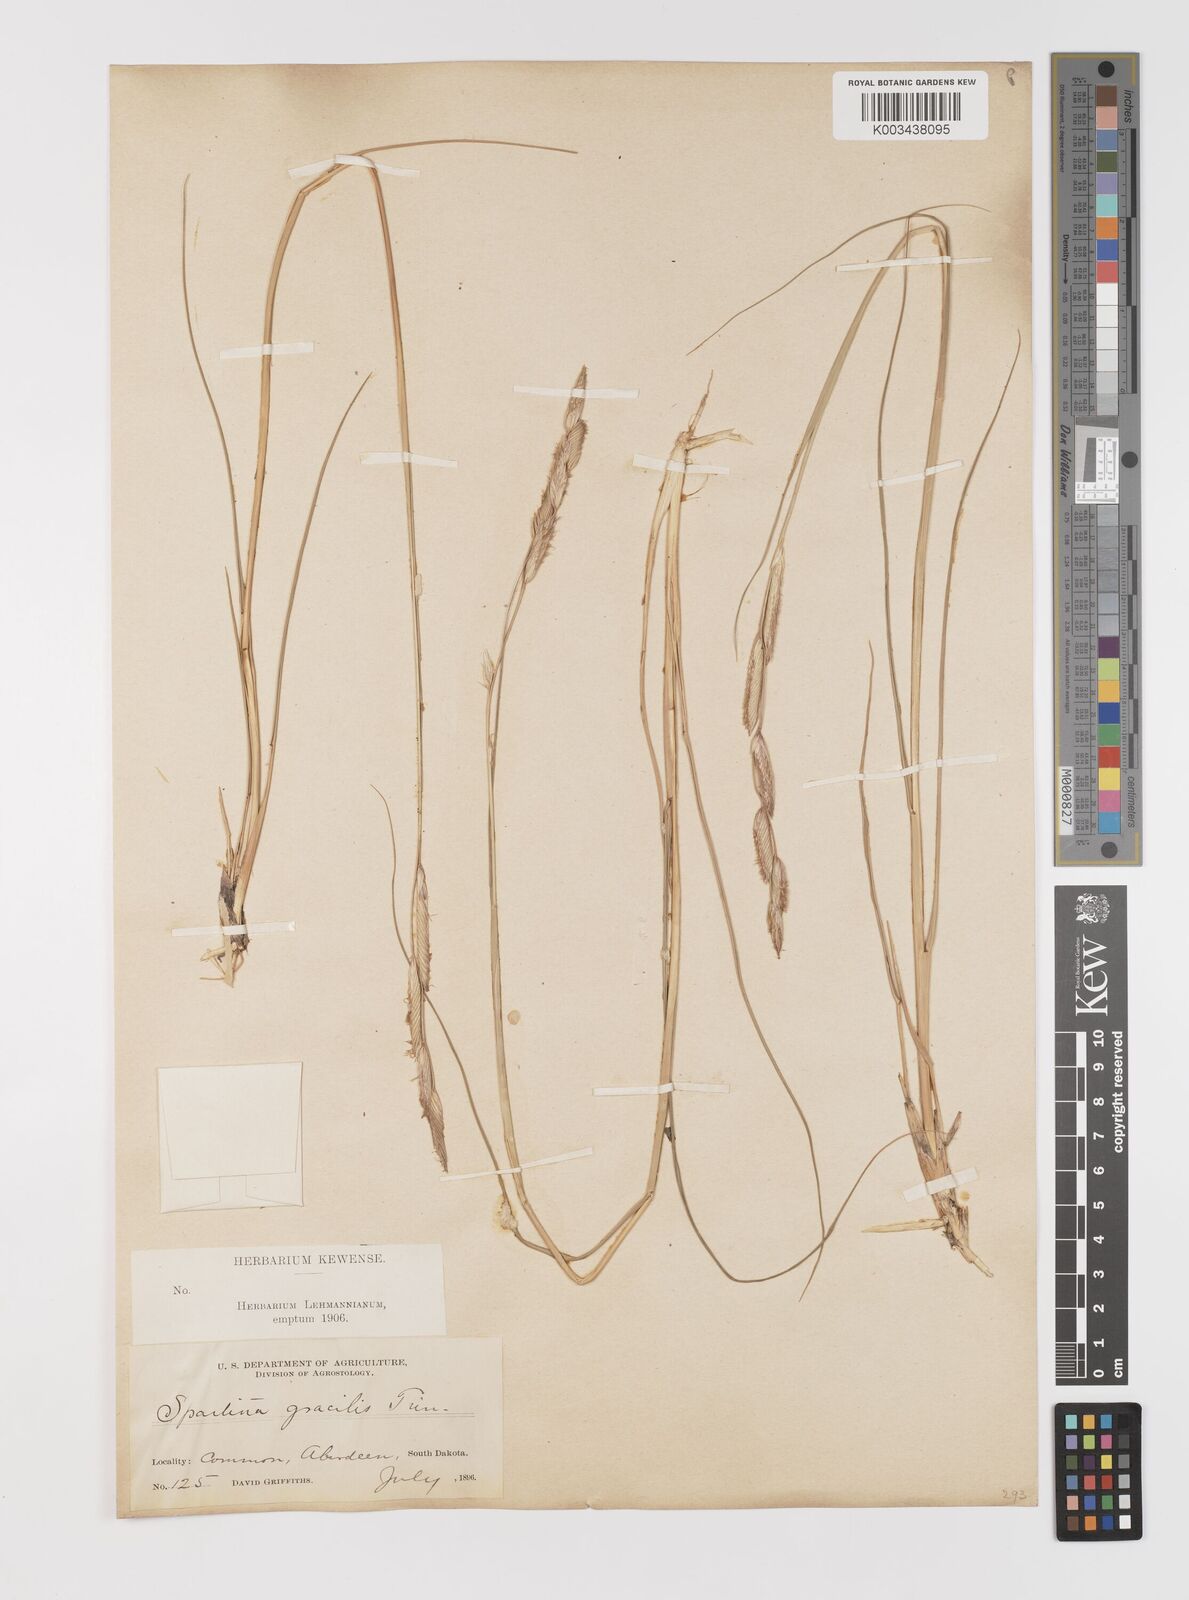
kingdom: Plantae
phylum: Tracheophyta
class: Liliopsida
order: Poales
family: Poaceae
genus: Sporobolus
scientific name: Sporobolus hookerianus
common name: Alkali cordgrass
